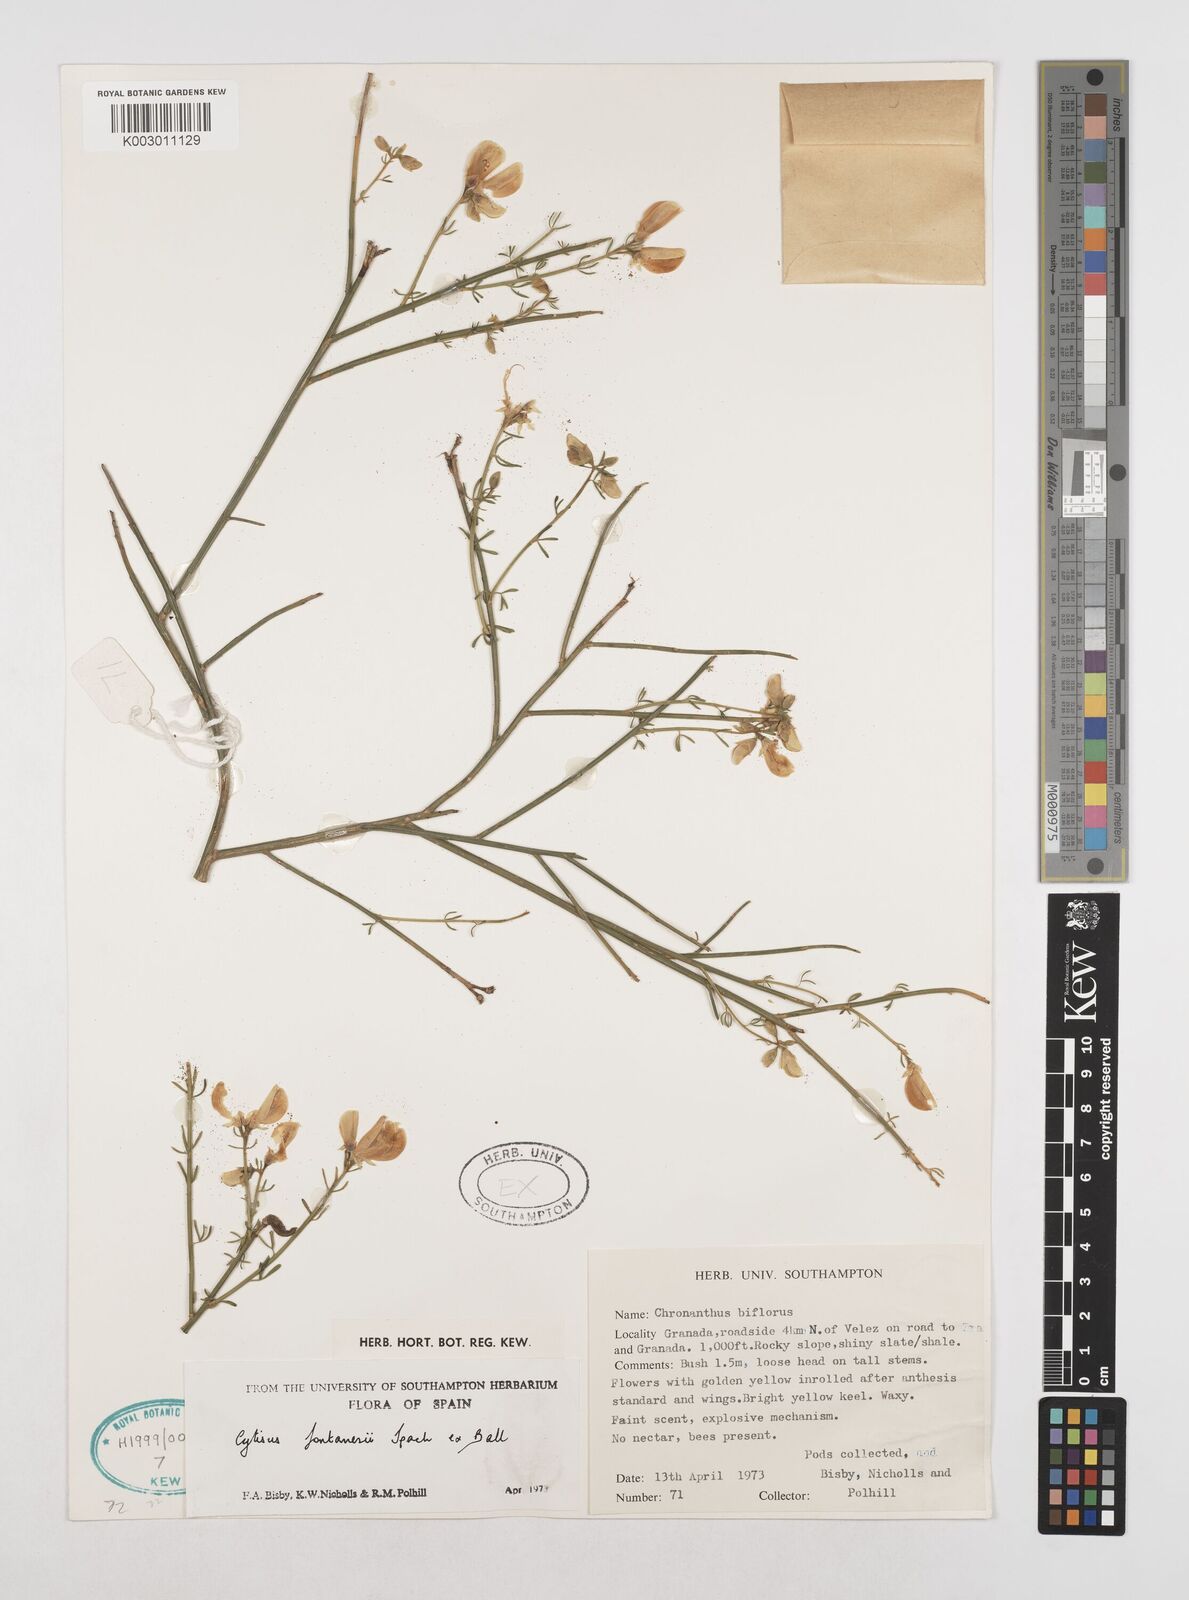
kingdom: Plantae
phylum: Tracheophyta
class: Magnoliopsida
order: Fabales
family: Fabaceae
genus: Cytisus
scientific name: Cytisus fontanesii
